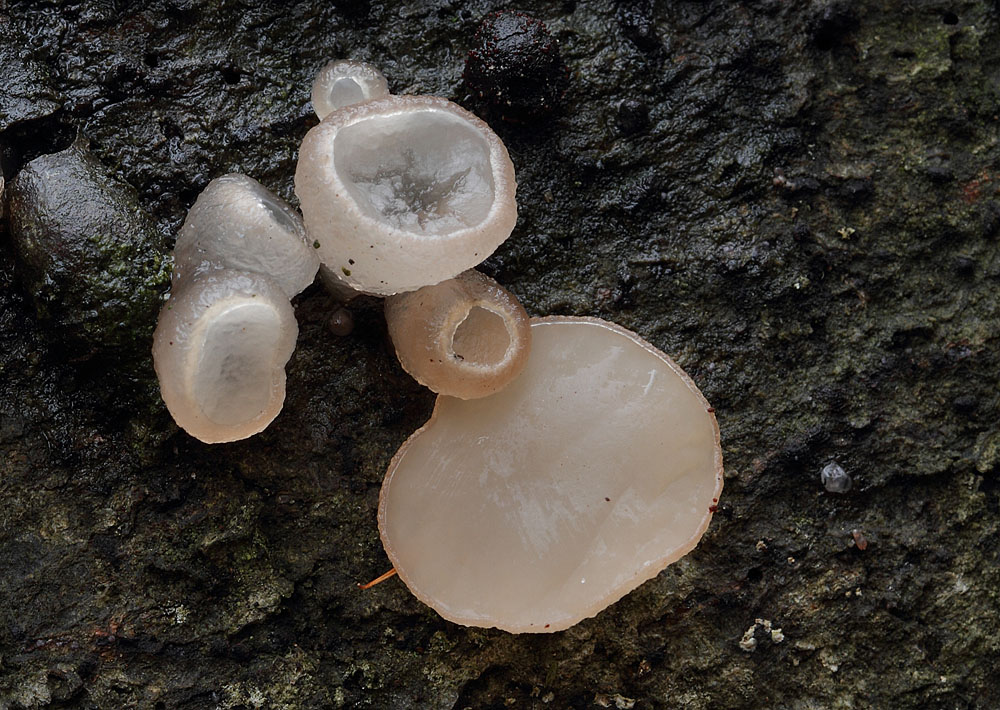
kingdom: Fungi
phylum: Ascomycota
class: Leotiomycetes
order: Helotiales
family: Gelatinodiscaceae
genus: Neobulgaria
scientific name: Neobulgaria pura
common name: bleg bævreskive
